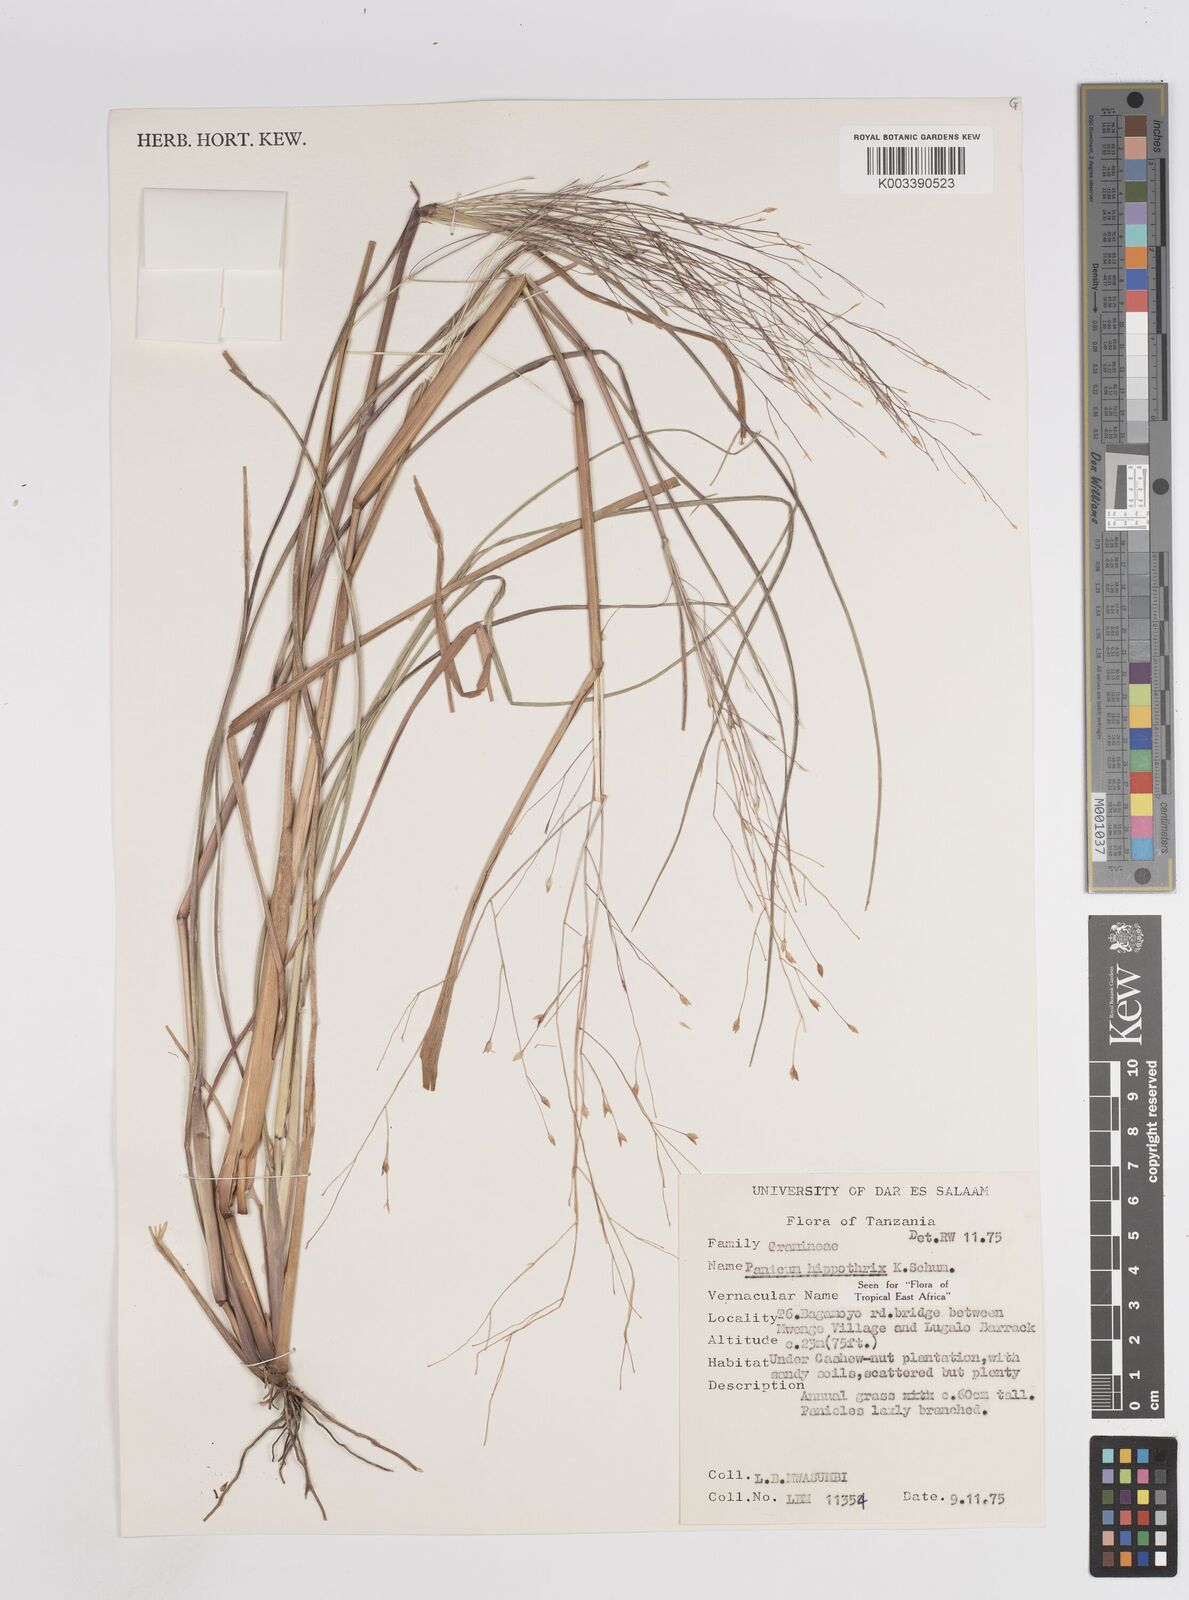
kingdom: Plantae
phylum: Tracheophyta
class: Liliopsida
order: Poales
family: Poaceae
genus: Panicum
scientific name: Panicum hippothrix
